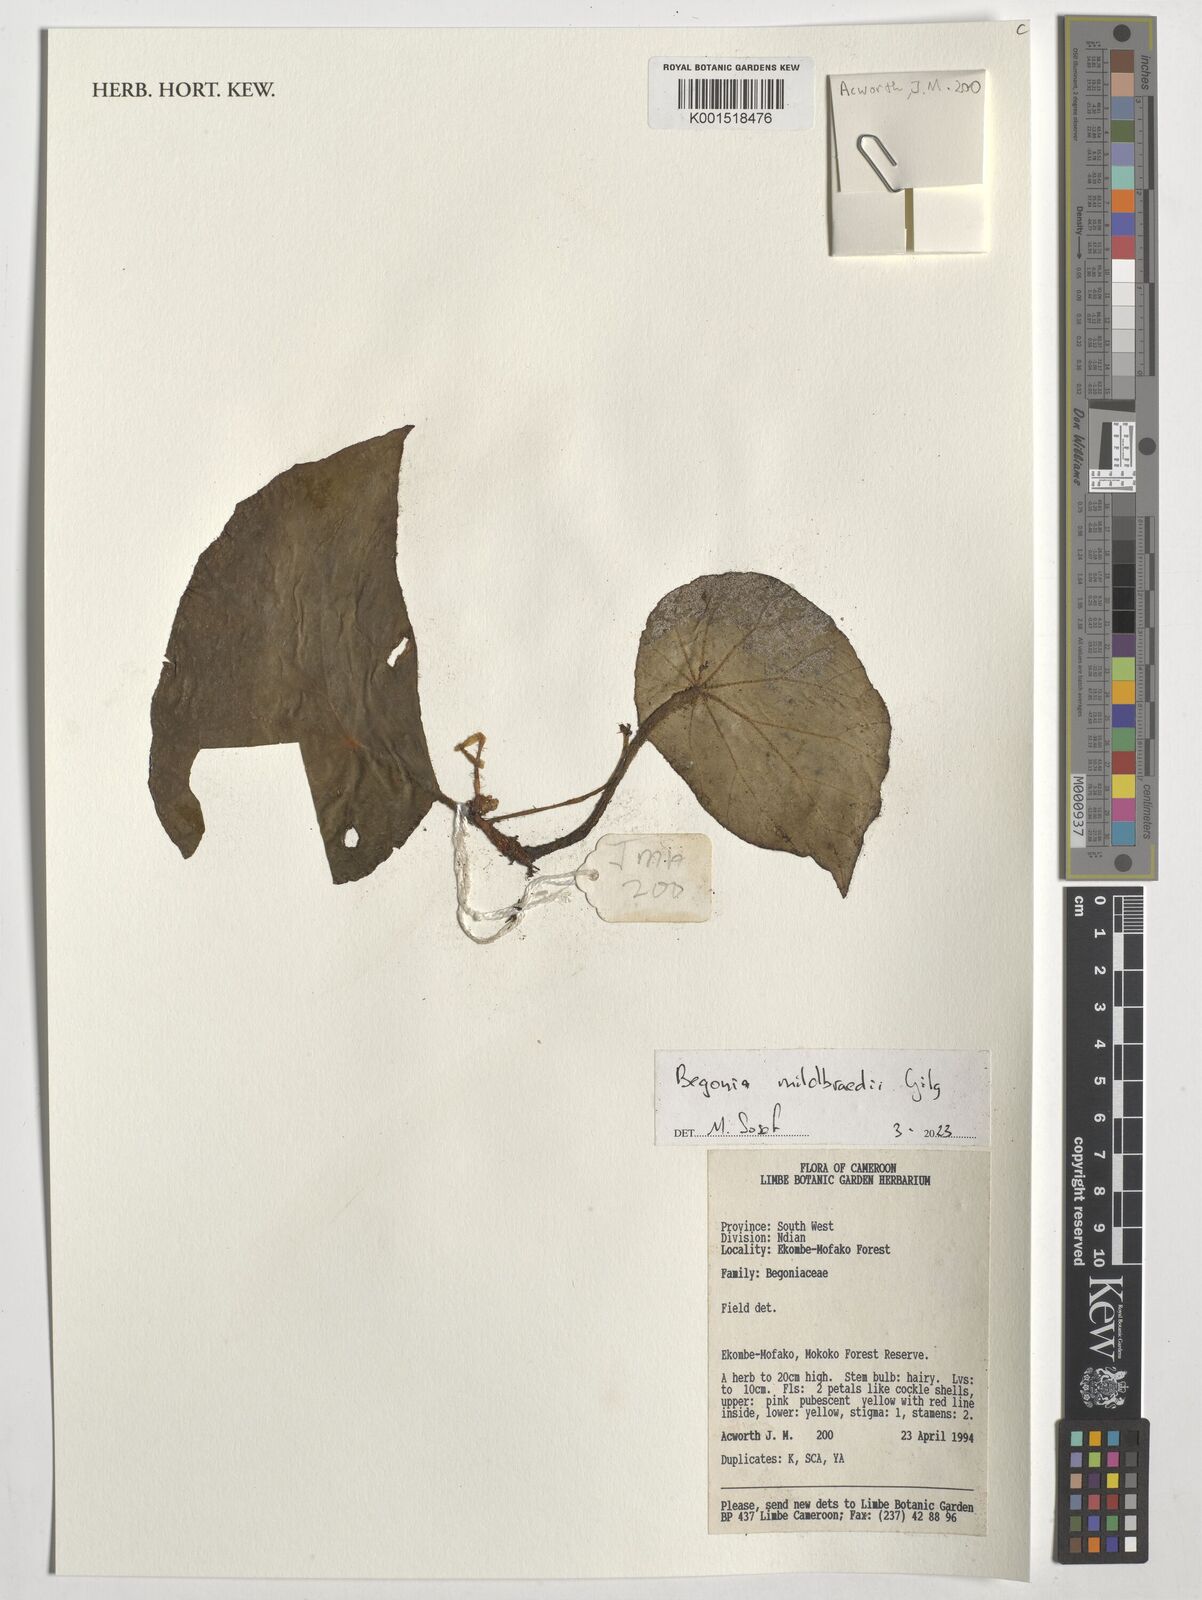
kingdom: Plantae
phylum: Tracheophyta
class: Magnoliopsida
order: Cucurbitales
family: Begoniaceae
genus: Begonia
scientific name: Begonia mildbraedii
